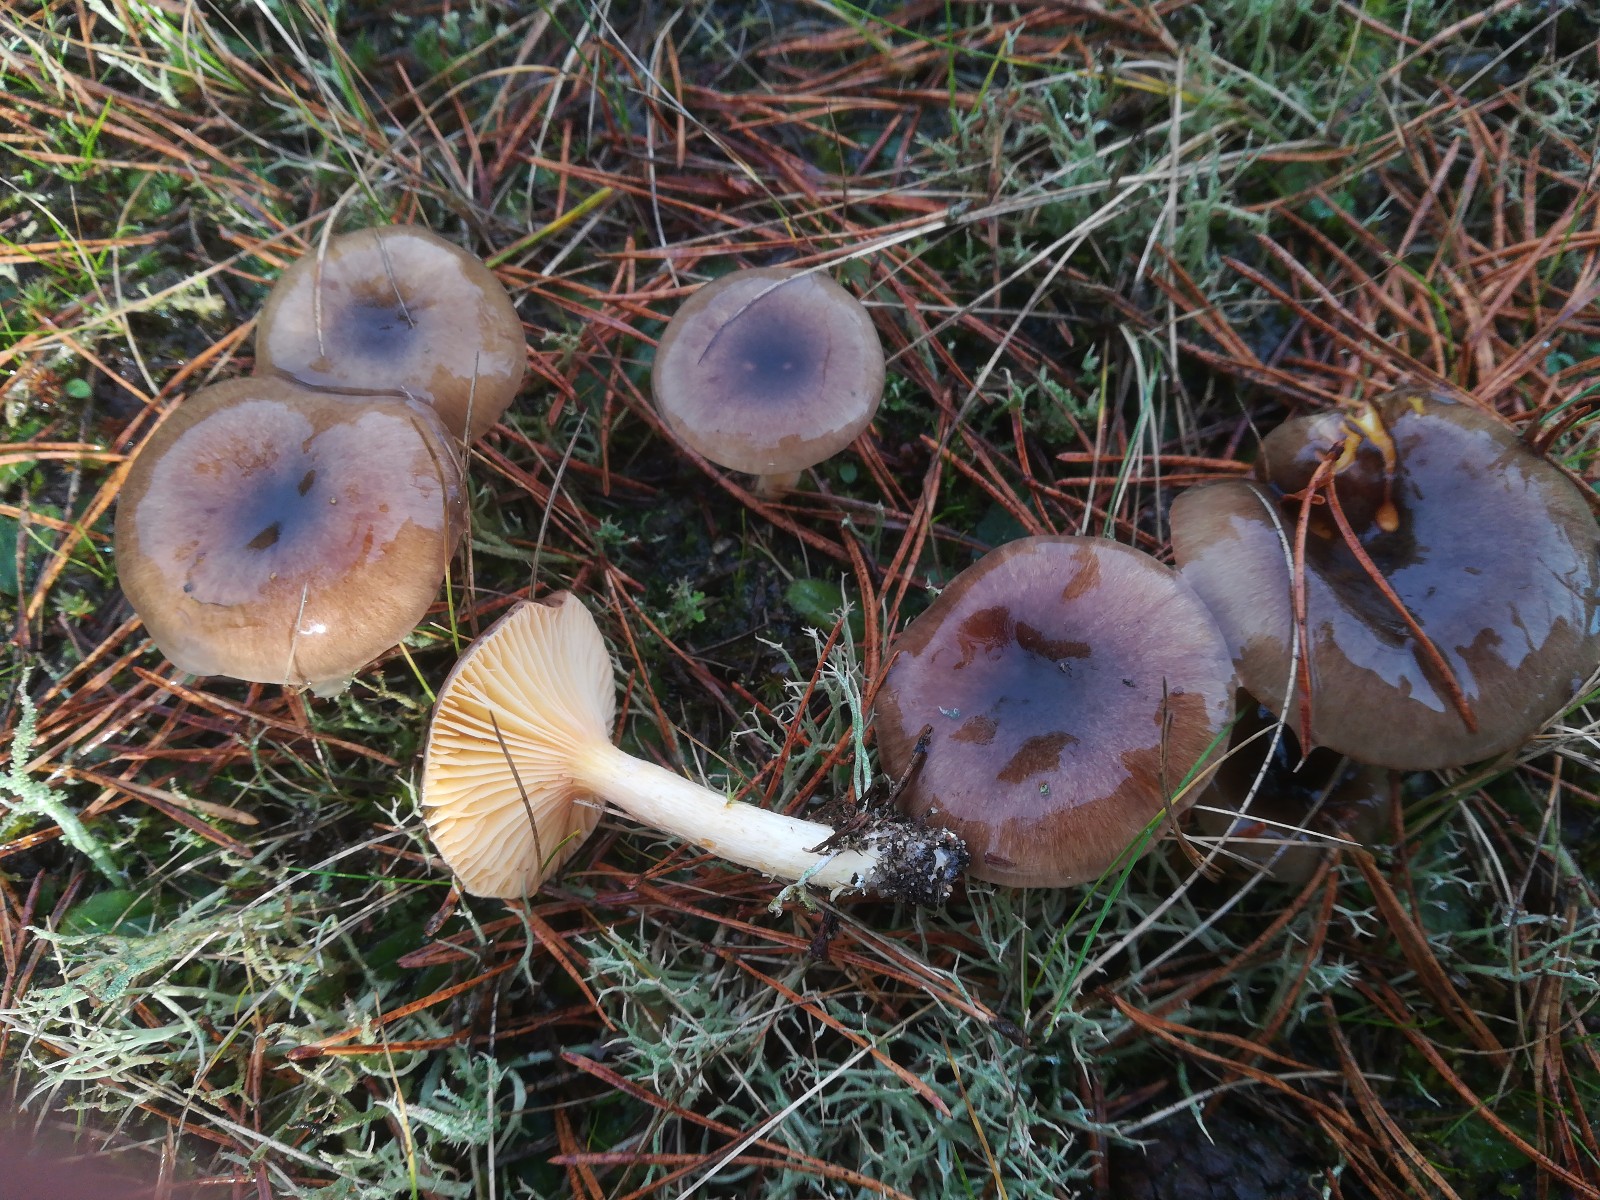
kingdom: Fungi
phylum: Basidiomycota
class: Agaricomycetes
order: Agaricales
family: Hygrophoraceae
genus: Hygrophorus
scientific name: Hygrophorus hypothejus
